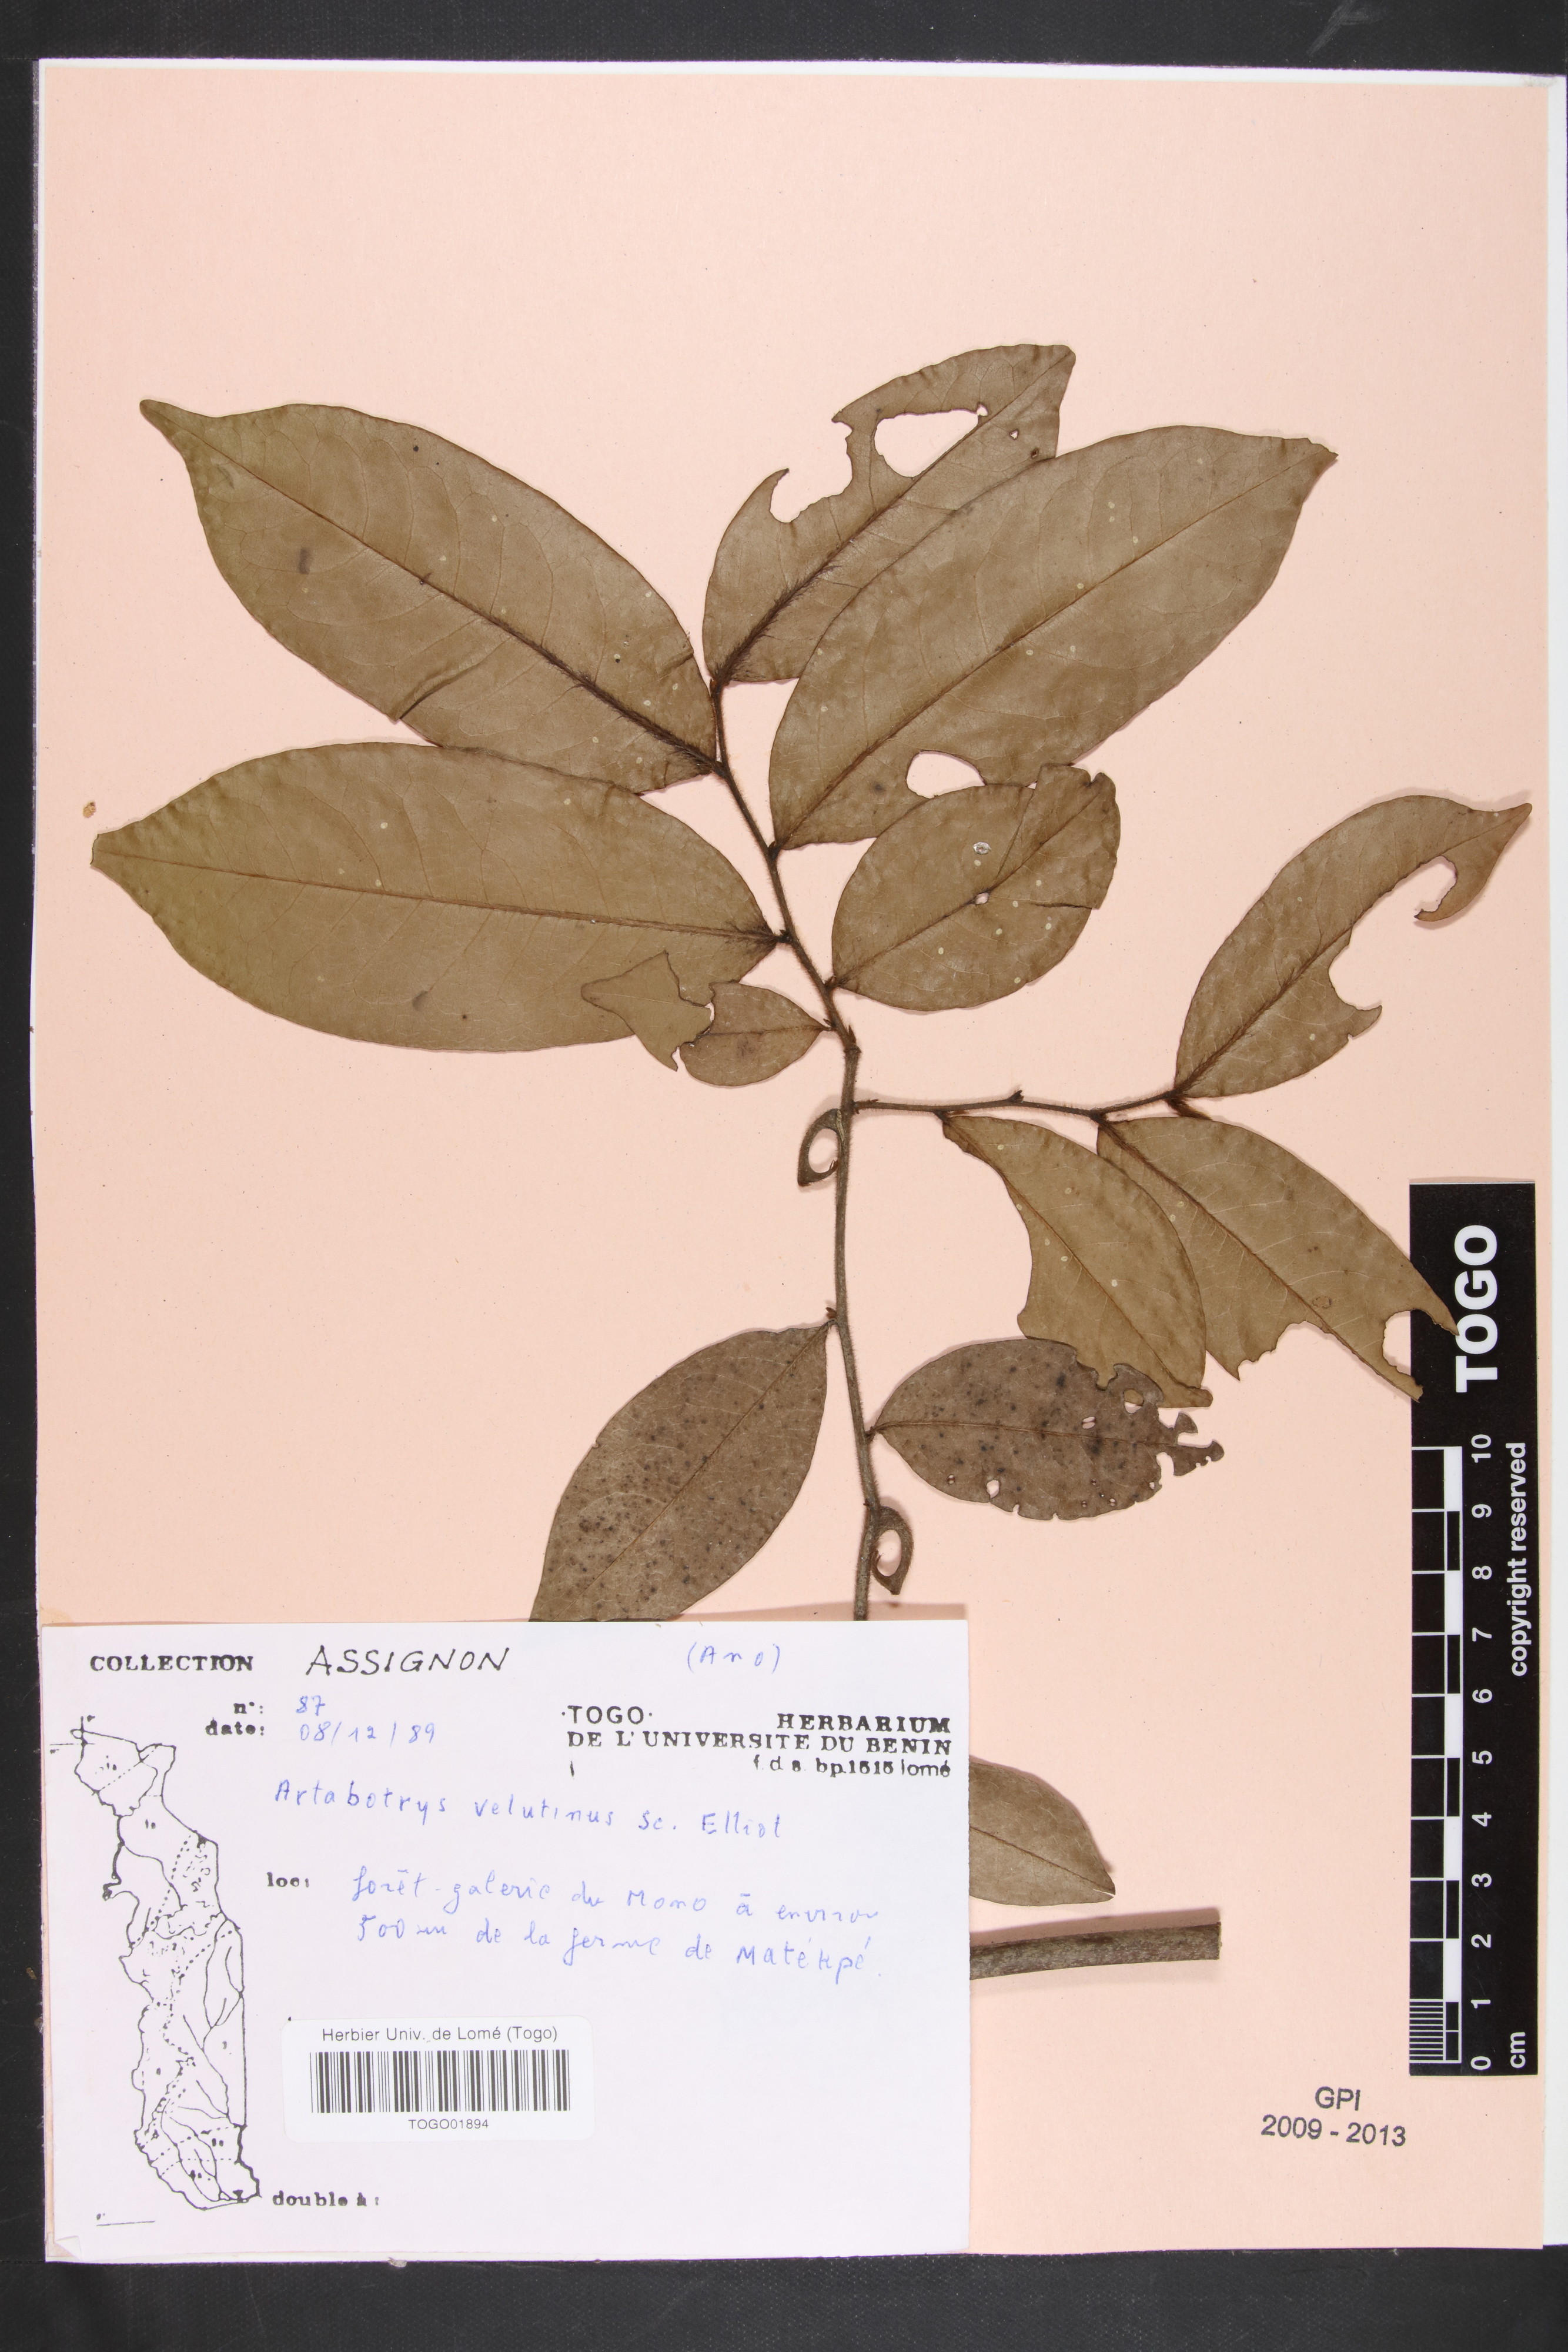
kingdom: Plantae
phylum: Tracheophyta
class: Magnoliopsida
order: Magnoliales
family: Annonaceae
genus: Artabotrys
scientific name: Artabotrys velutinus
